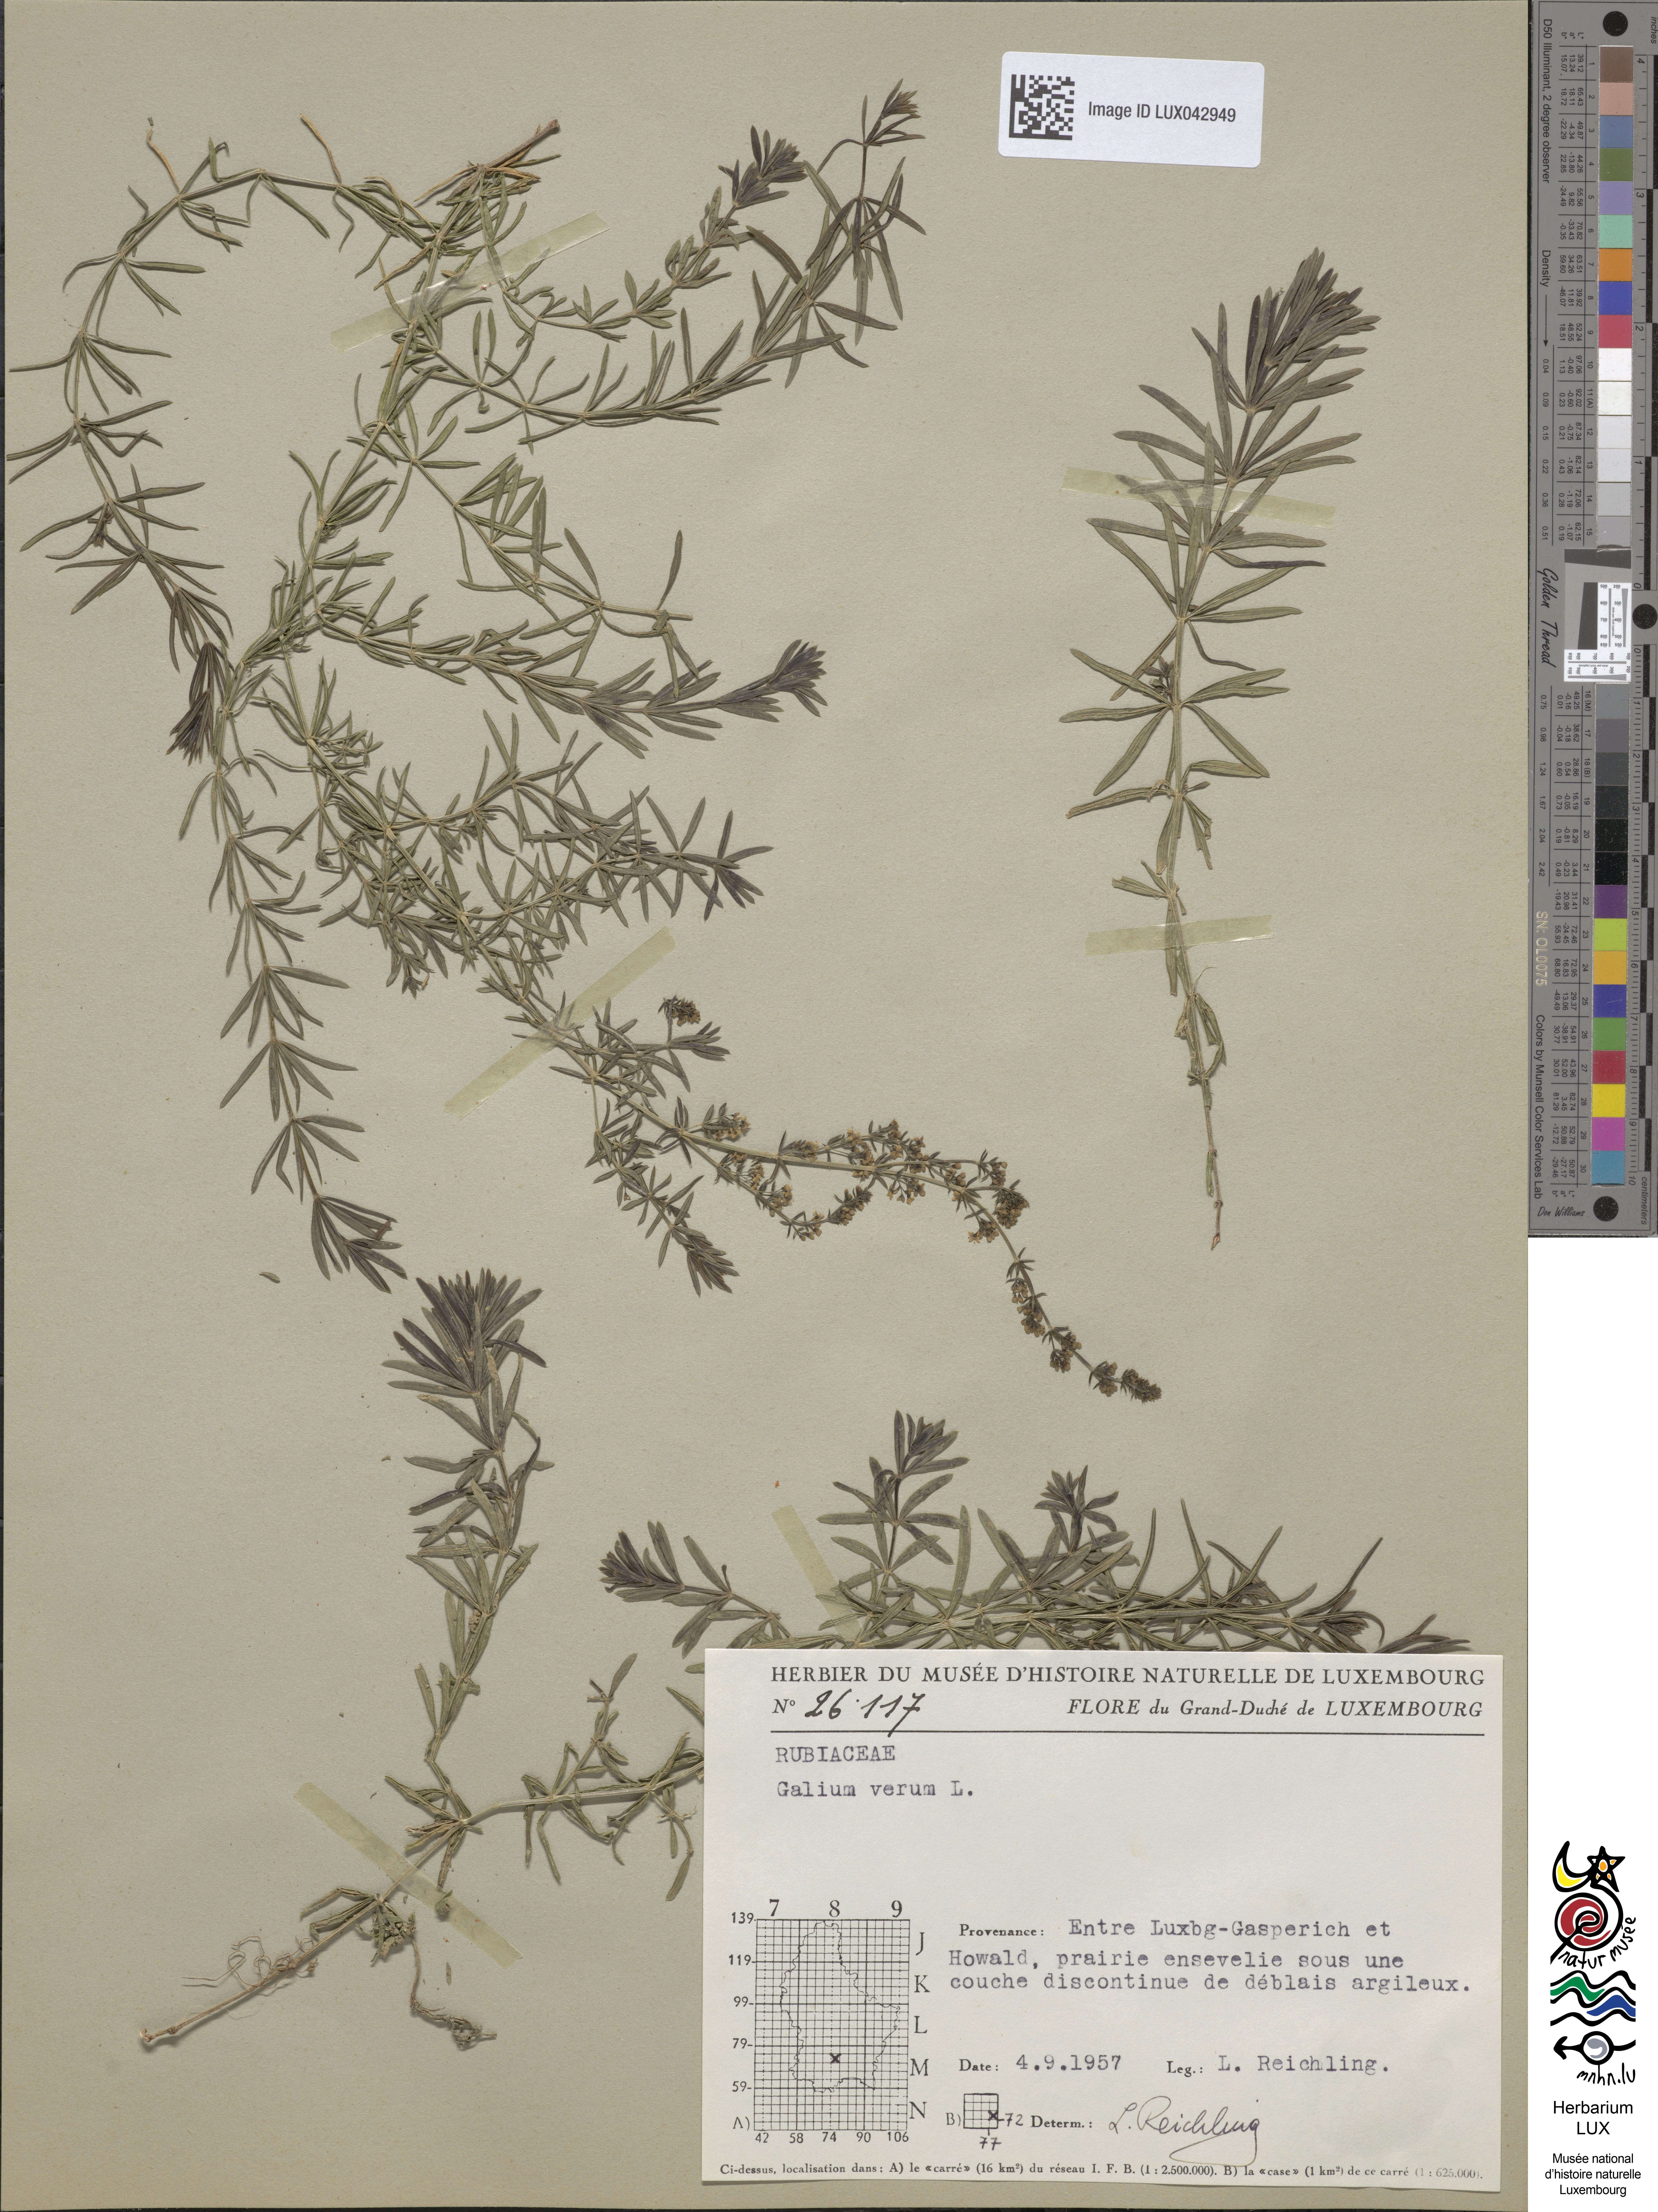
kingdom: Plantae
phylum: Tracheophyta
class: Magnoliopsida
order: Gentianales
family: Rubiaceae
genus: Galium
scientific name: Galium verum
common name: Lady's bedstraw
